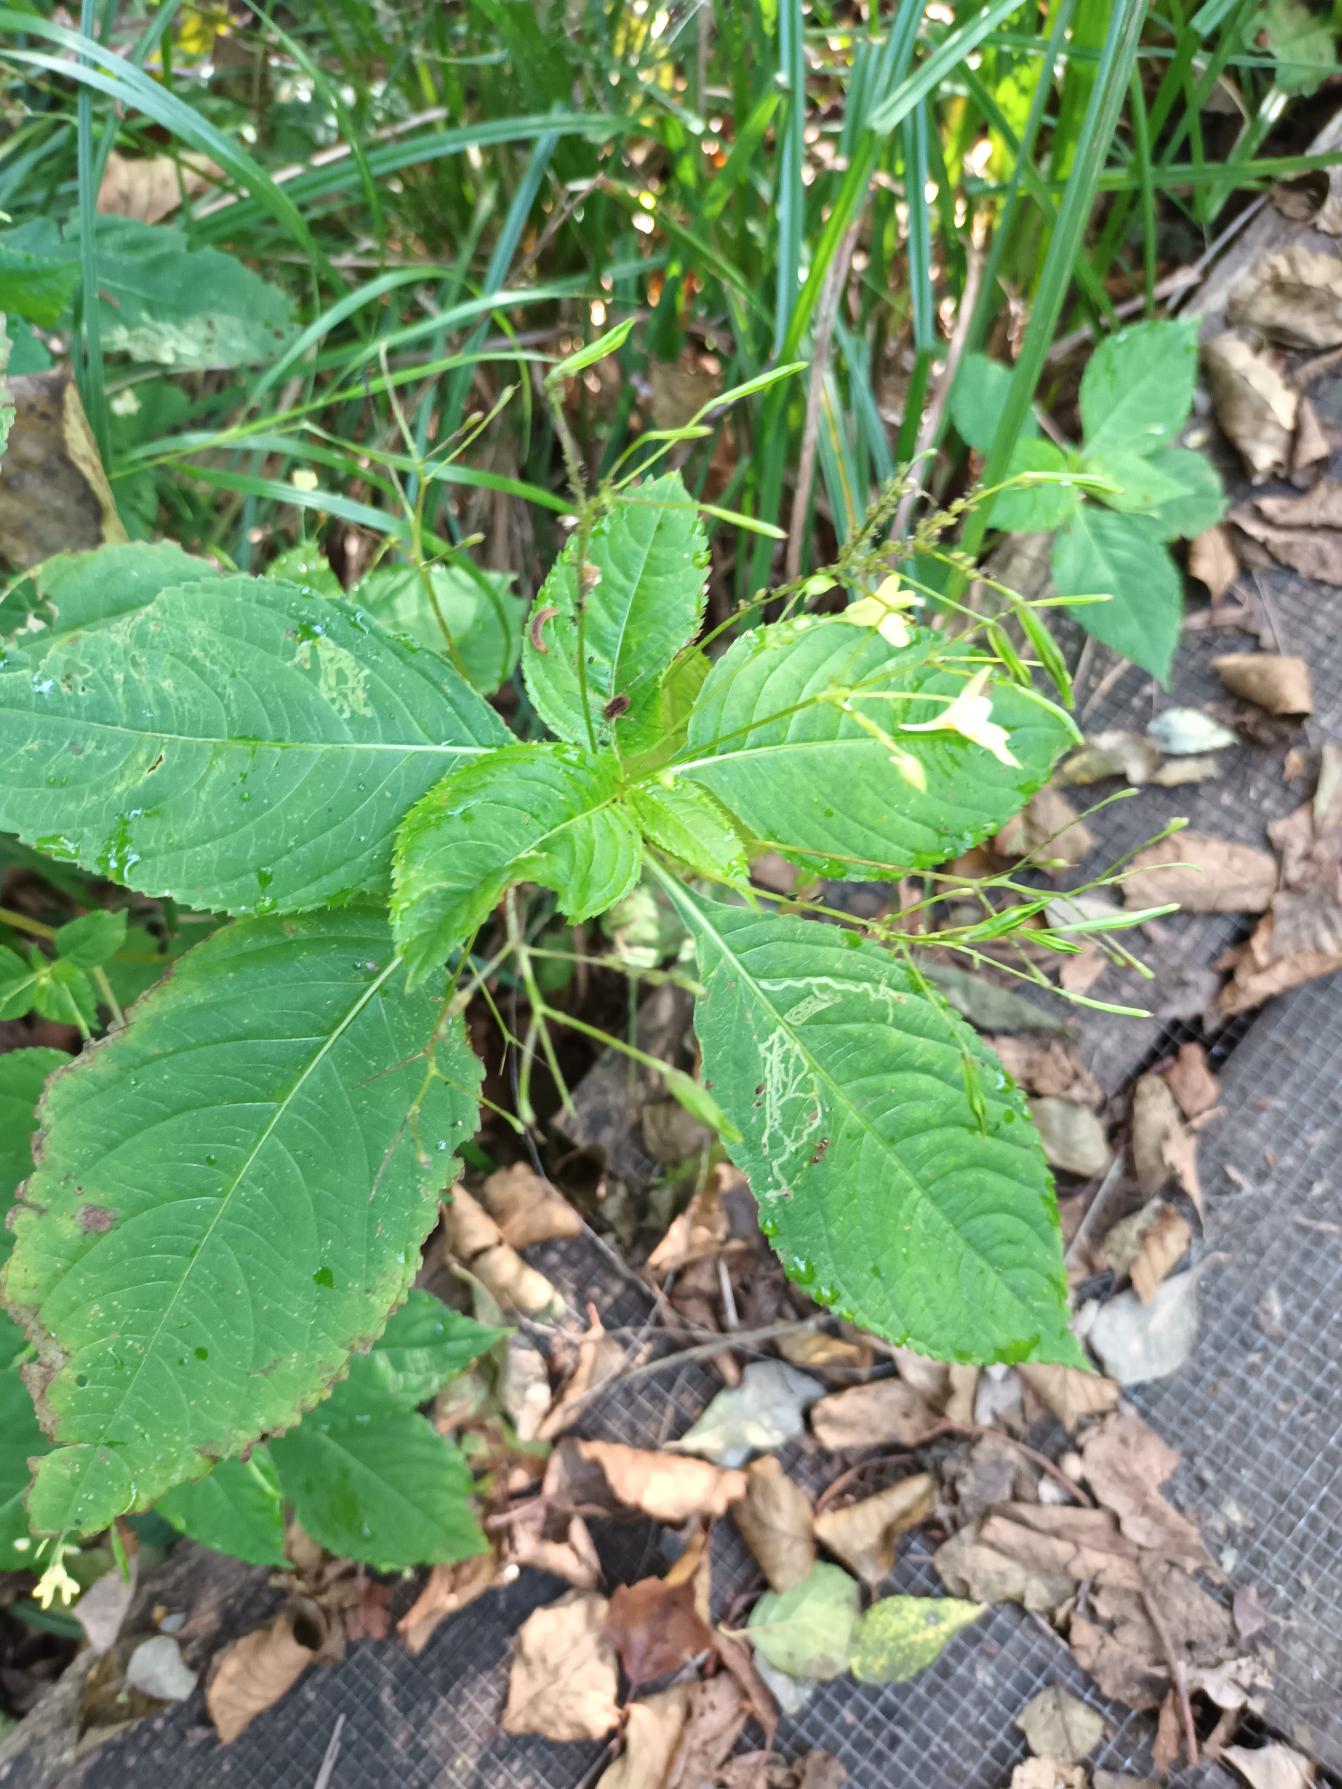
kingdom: Plantae
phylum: Tracheophyta
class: Magnoliopsida
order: Ericales
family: Balsaminaceae
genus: Impatiens
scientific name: Impatiens parviflora
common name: Småblomstret balsamin
